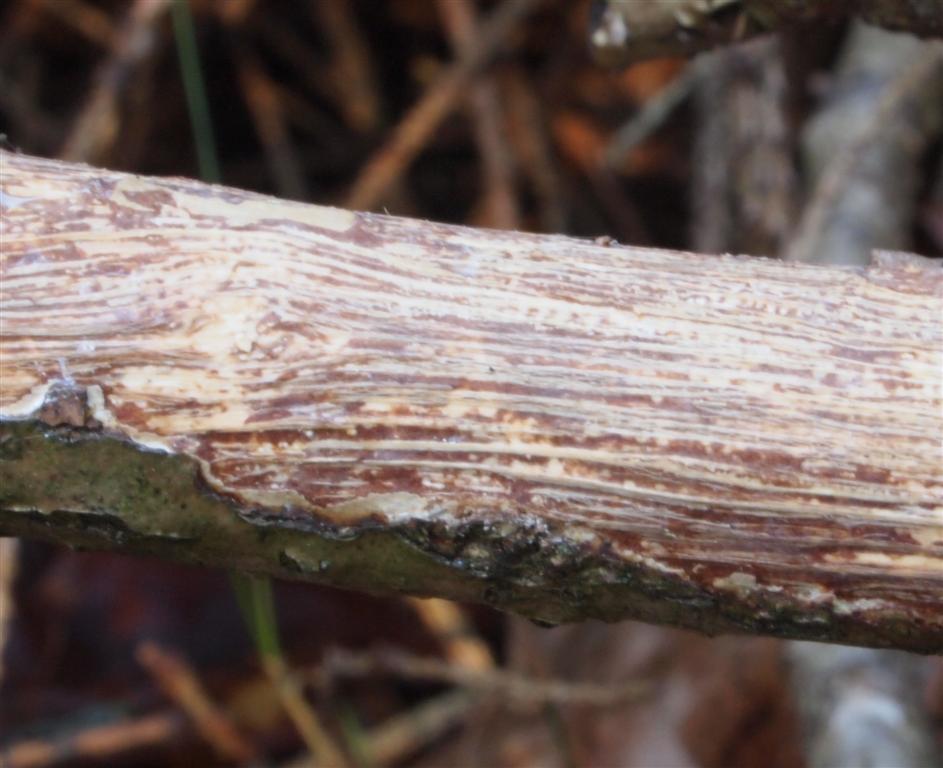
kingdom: Fungi
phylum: Basidiomycota
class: Agaricomycetes
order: Corticiales
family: Vuilleminiaceae
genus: Vuilleminia
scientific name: Vuilleminia comedens
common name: almindelig barksprænger
